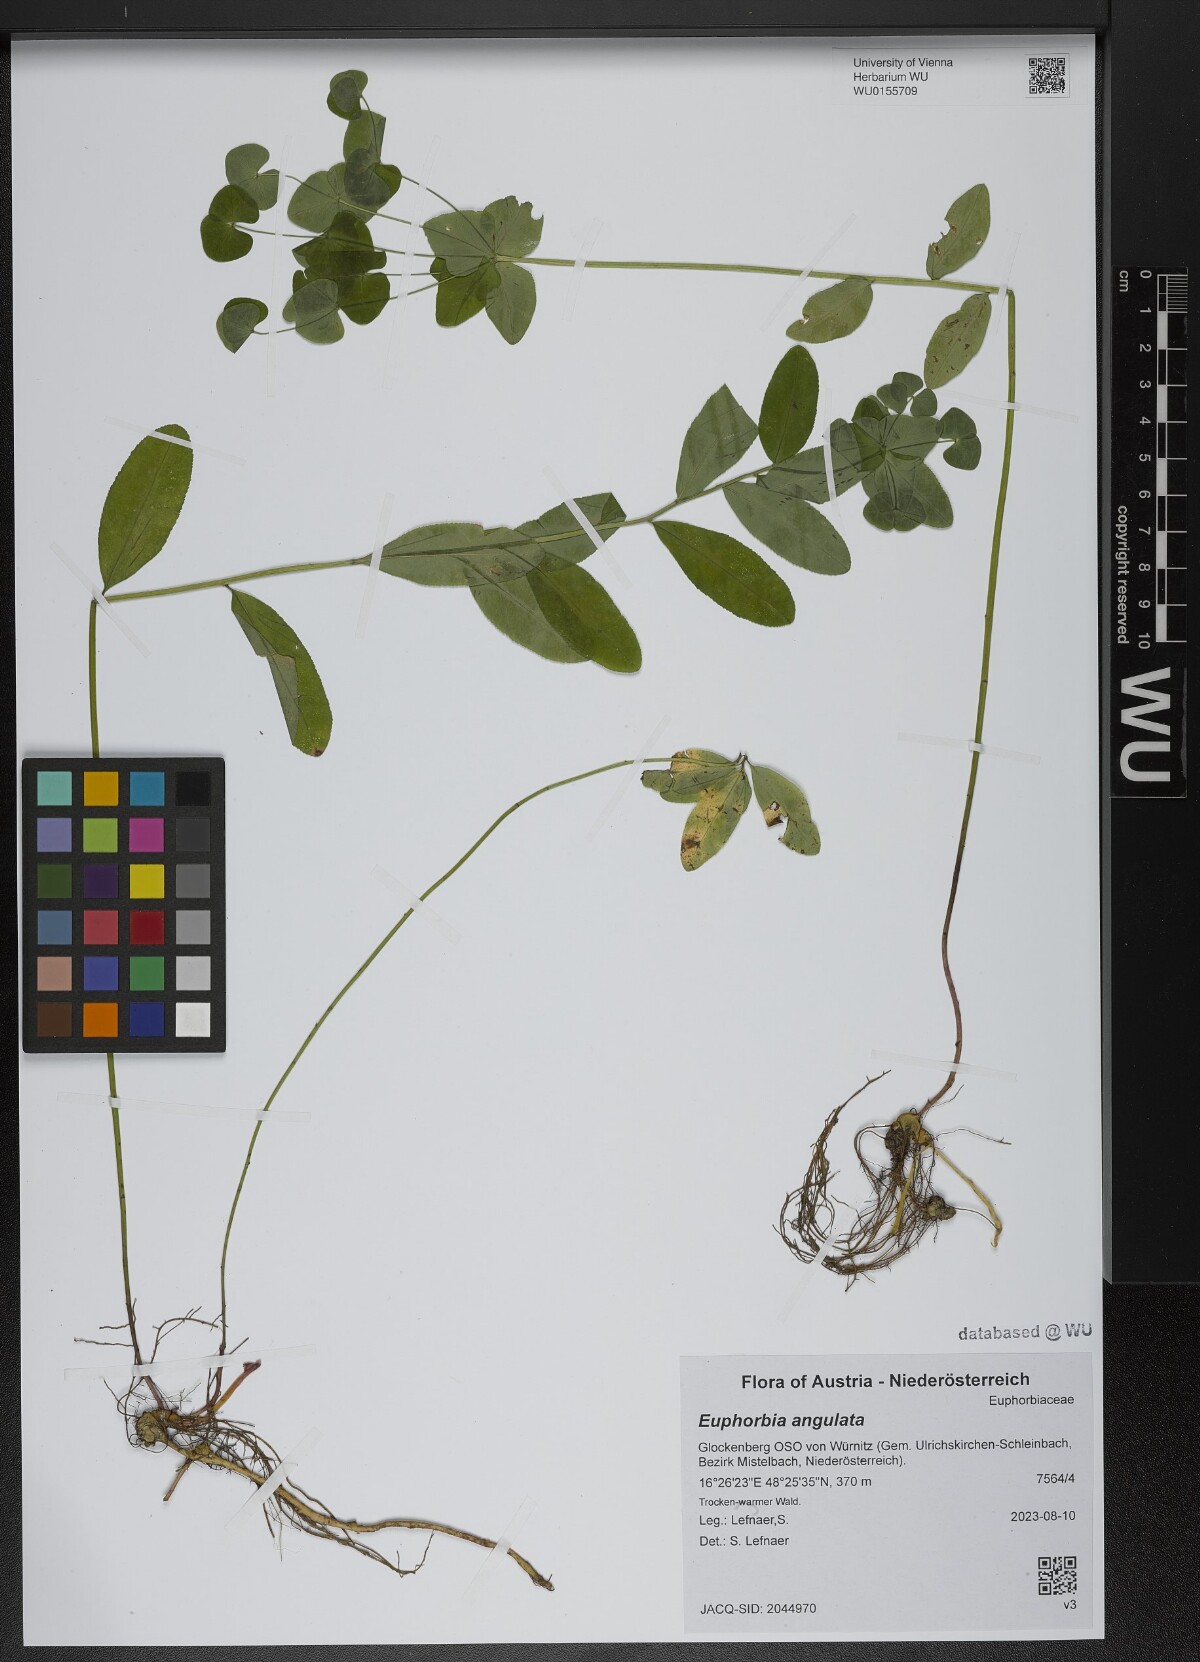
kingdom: Plantae
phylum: Tracheophyta
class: Magnoliopsida
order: Malpighiales
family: Euphorbiaceae
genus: Euphorbia
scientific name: Euphorbia angulata
